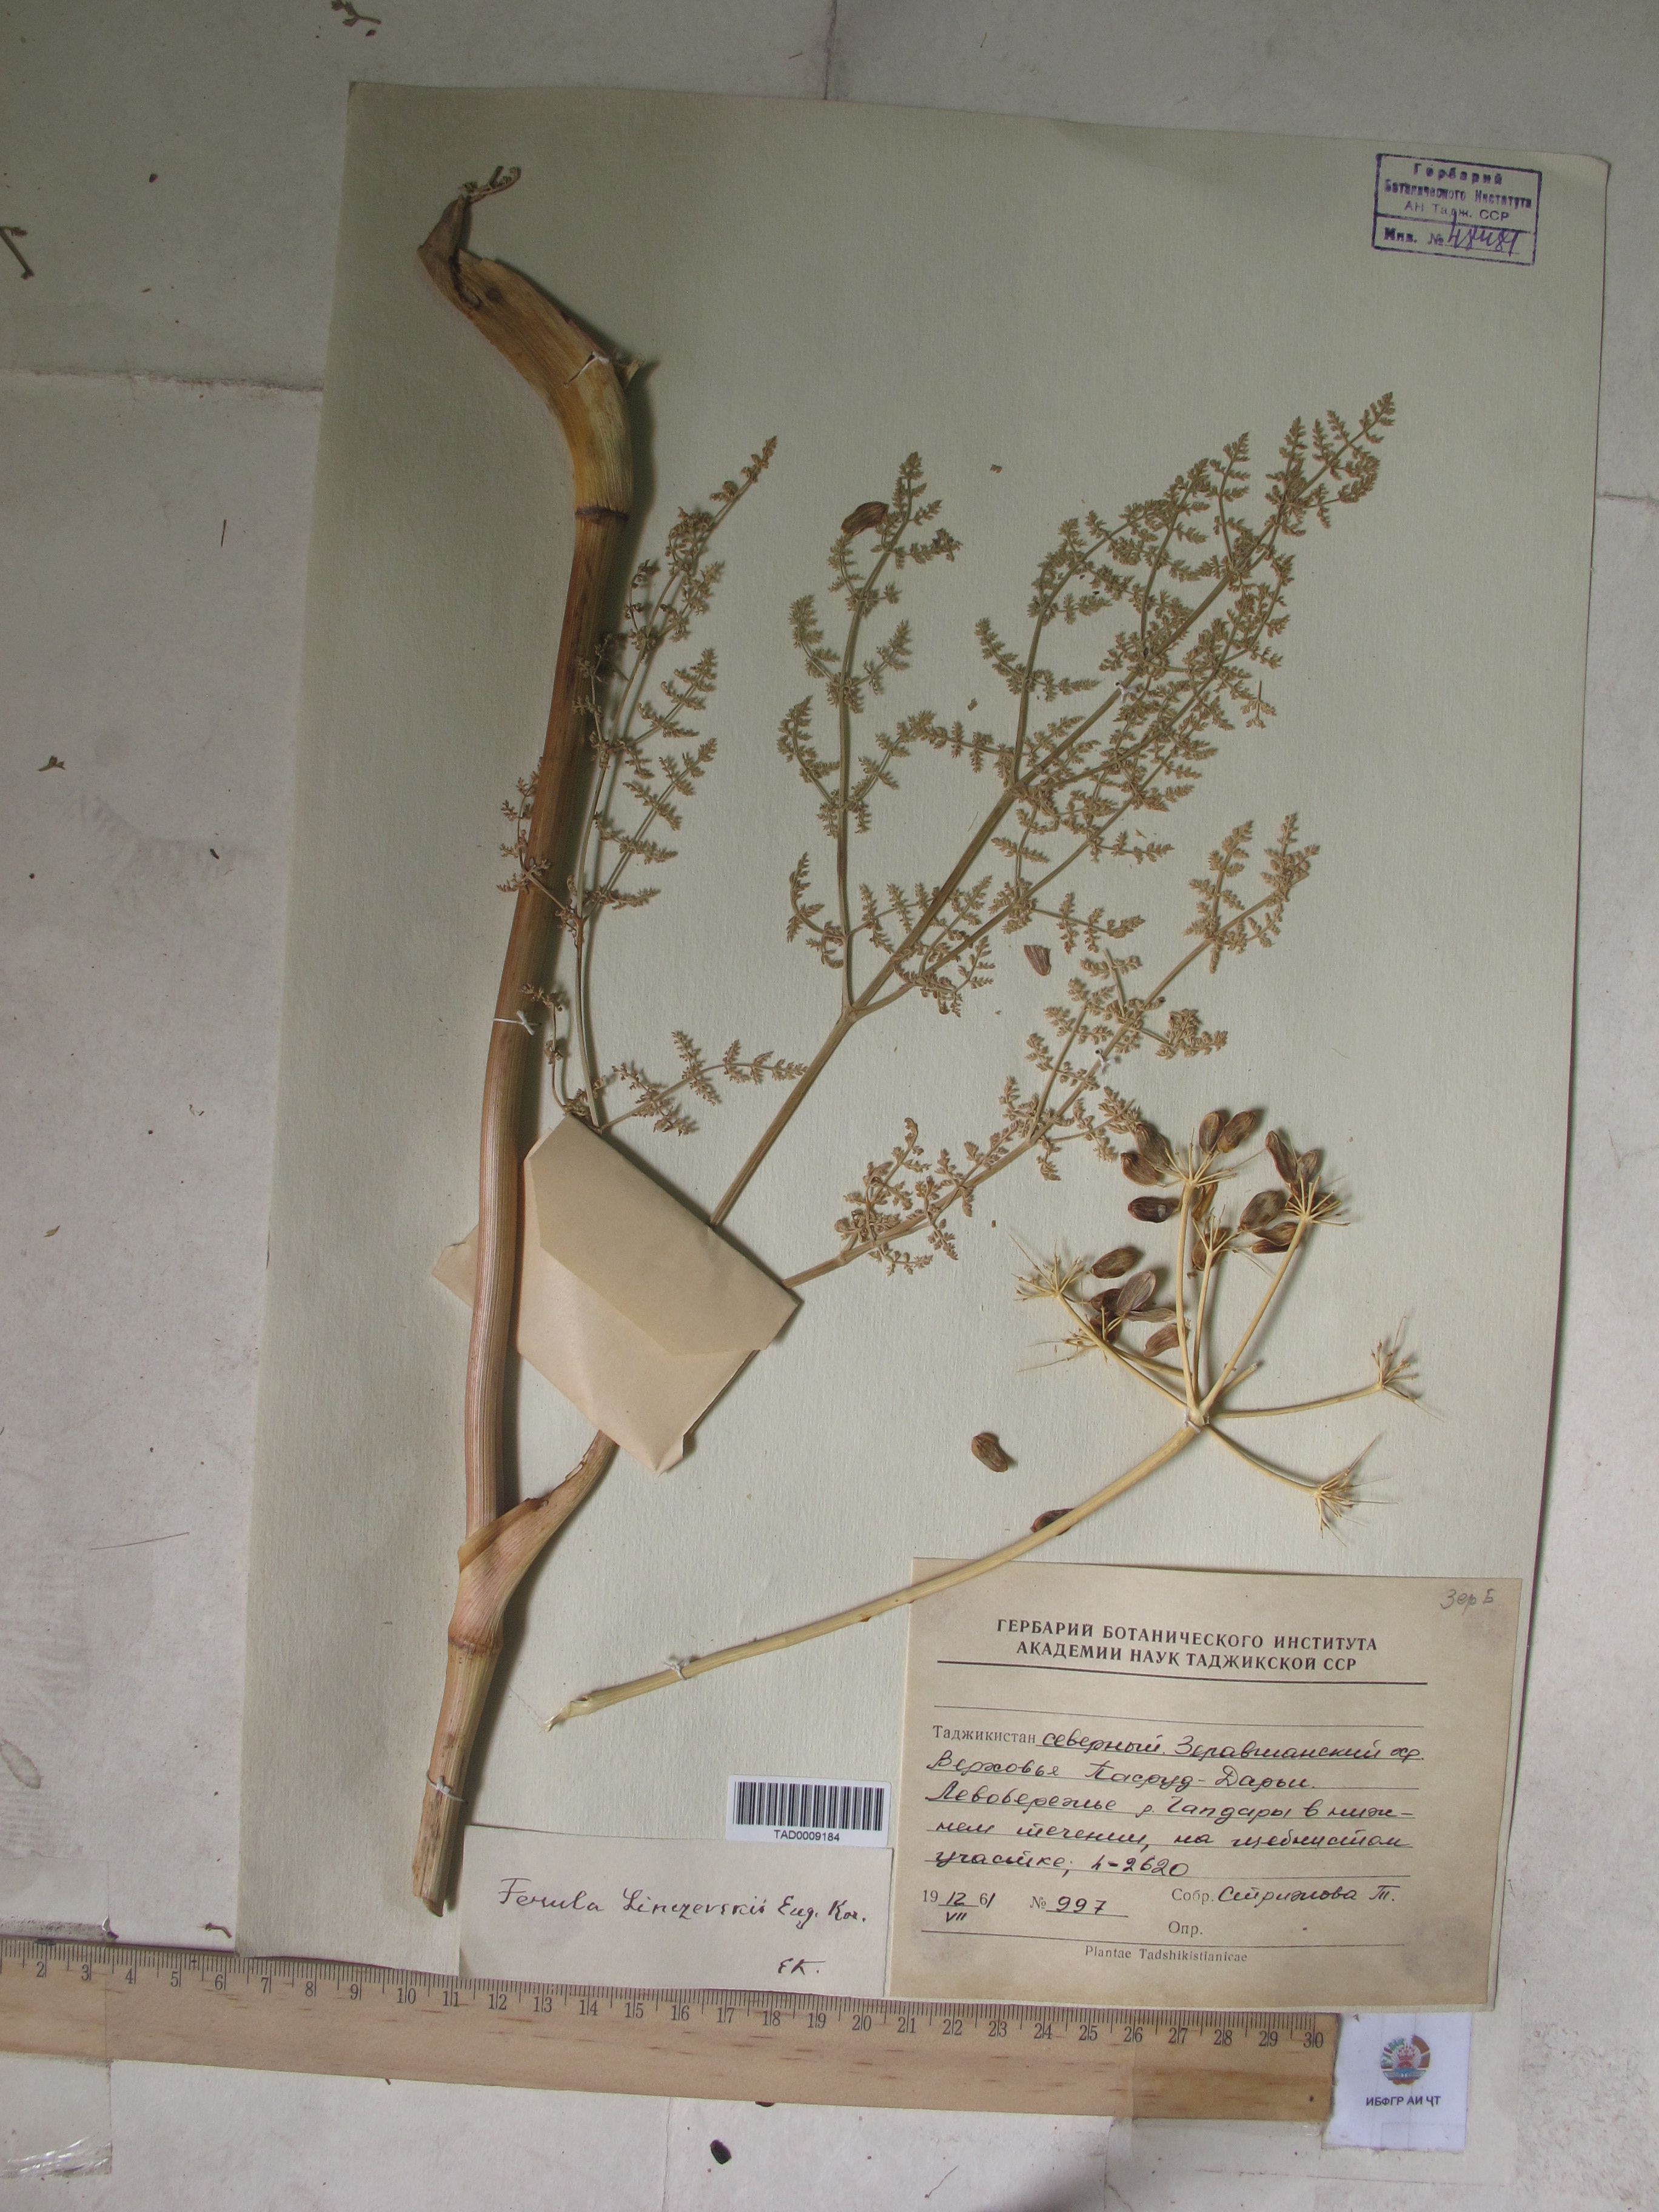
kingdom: Plantae
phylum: Tracheophyta
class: Magnoliopsida
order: Apiales
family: Apiaceae
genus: Ferula
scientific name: Ferula linczevskii
